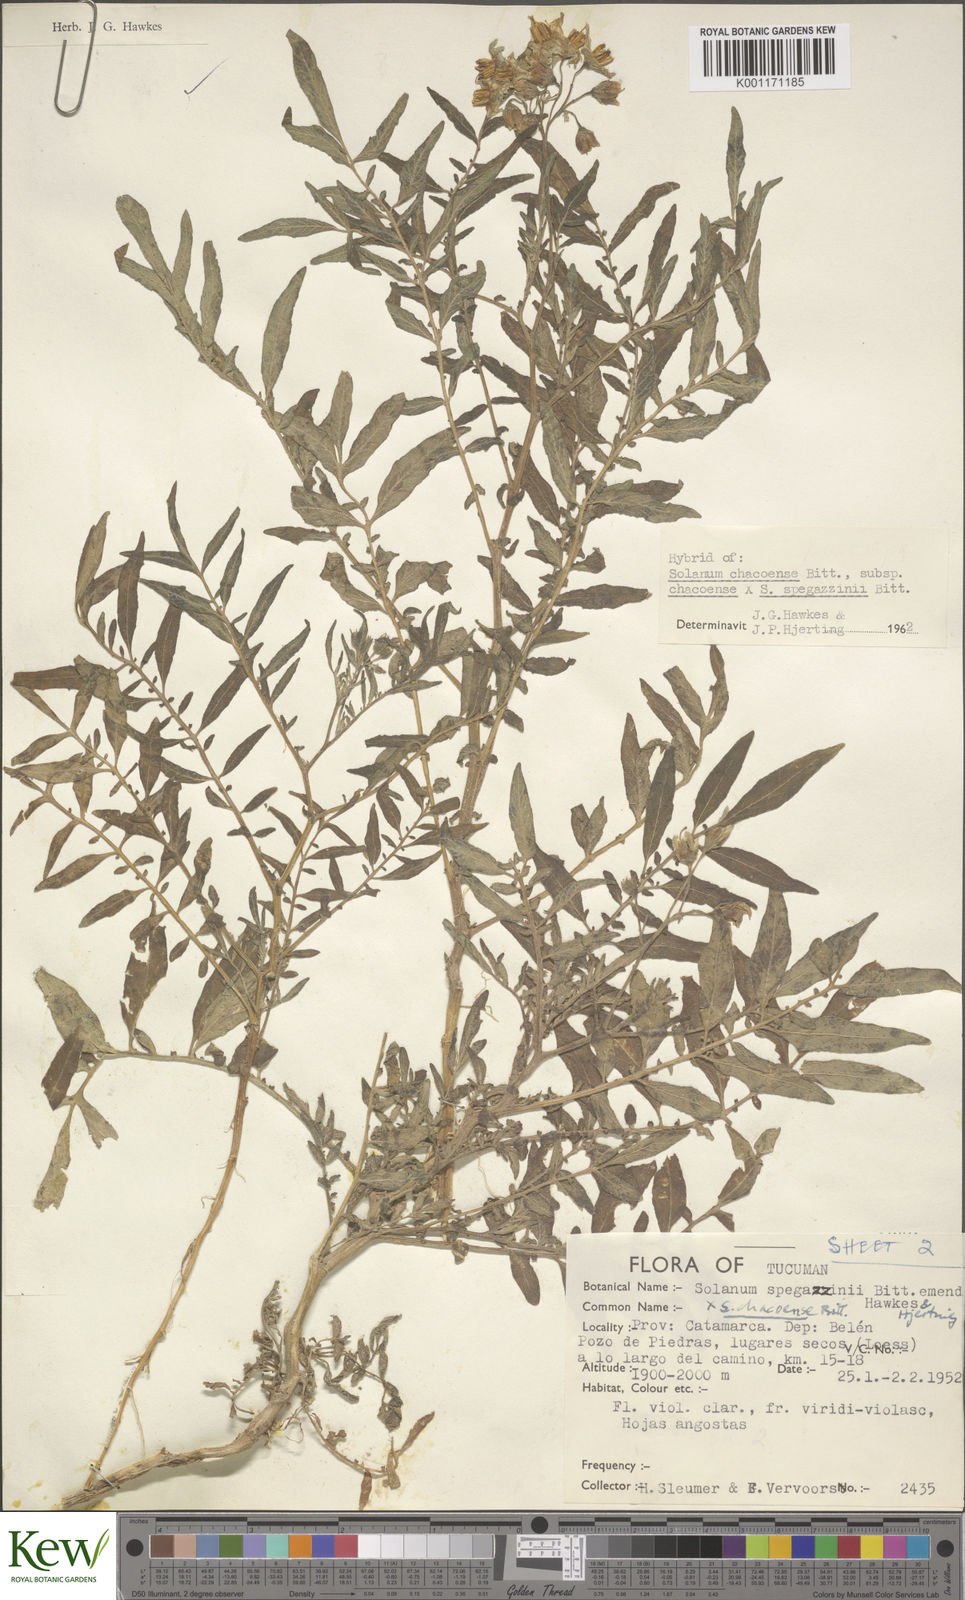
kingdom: Plantae
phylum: Tracheophyta
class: Magnoliopsida
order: Solanales
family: Solanaceae
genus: Solanum
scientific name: Solanum chacoense
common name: Chaco potato
